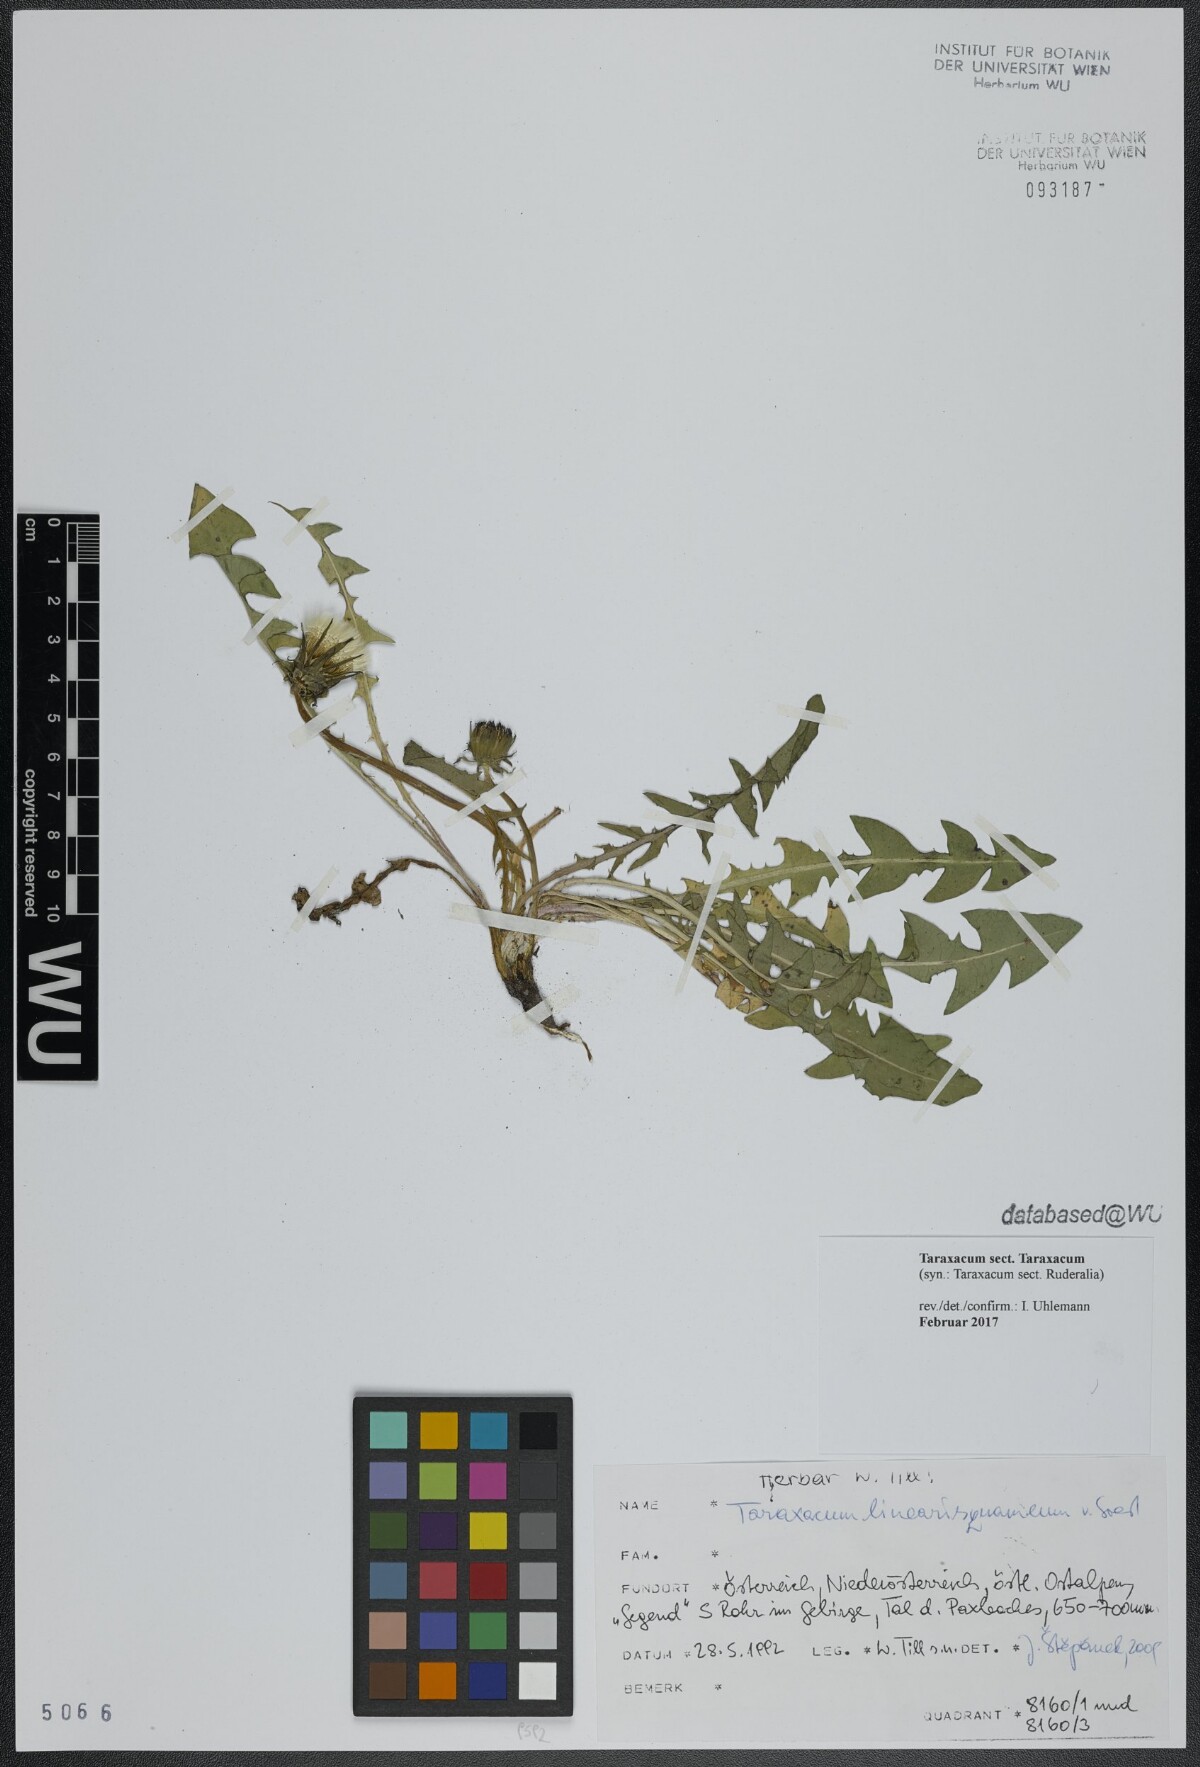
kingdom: Plantae
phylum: Tracheophyta
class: Magnoliopsida
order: Asterales
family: Asteraceae
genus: Taraxacum
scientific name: Taraxacum
